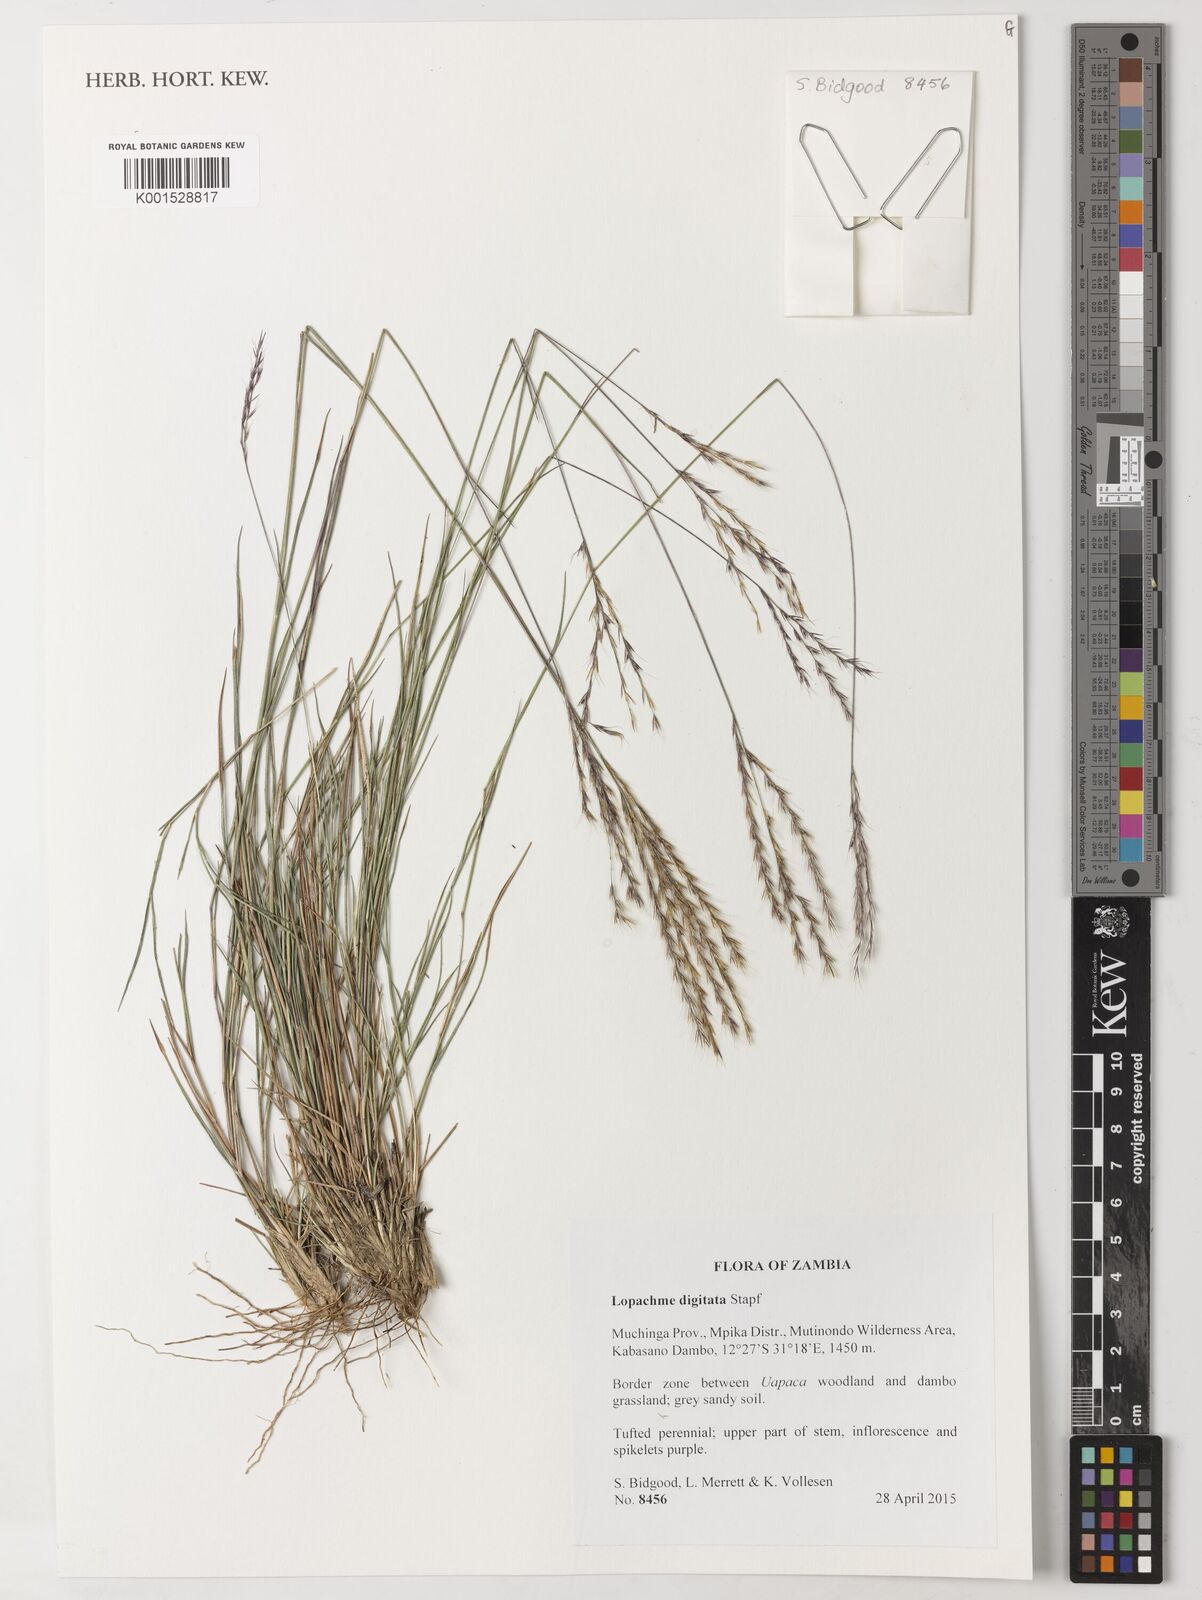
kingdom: Plantae
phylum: Tracheophyta
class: Liliopsida
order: Poales
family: Poaceae
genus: Lophacme
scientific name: Lophacme digitata
